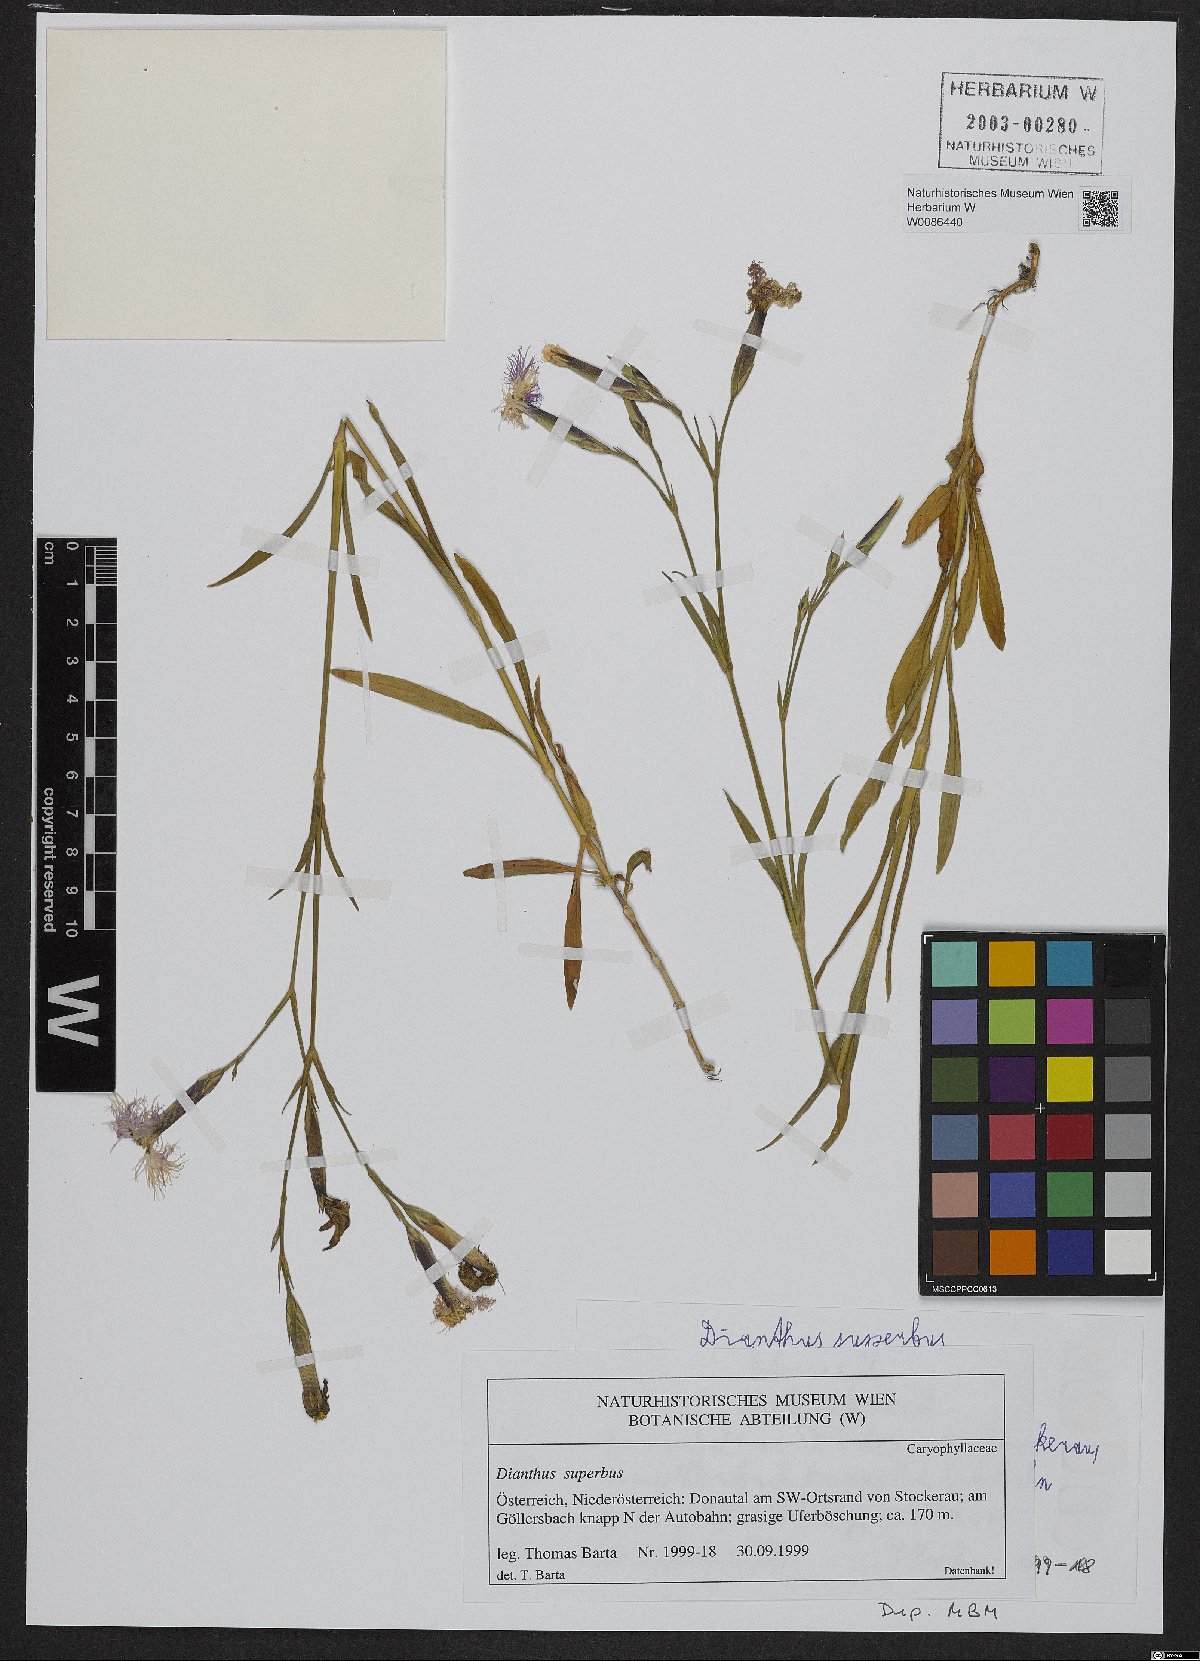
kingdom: Plantae
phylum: Tracheophyta
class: Magnoliopsida
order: Caryophyllales
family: Caryophyllaceae
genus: Dianthus
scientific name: Dianthus superbus
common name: Fringed pink
